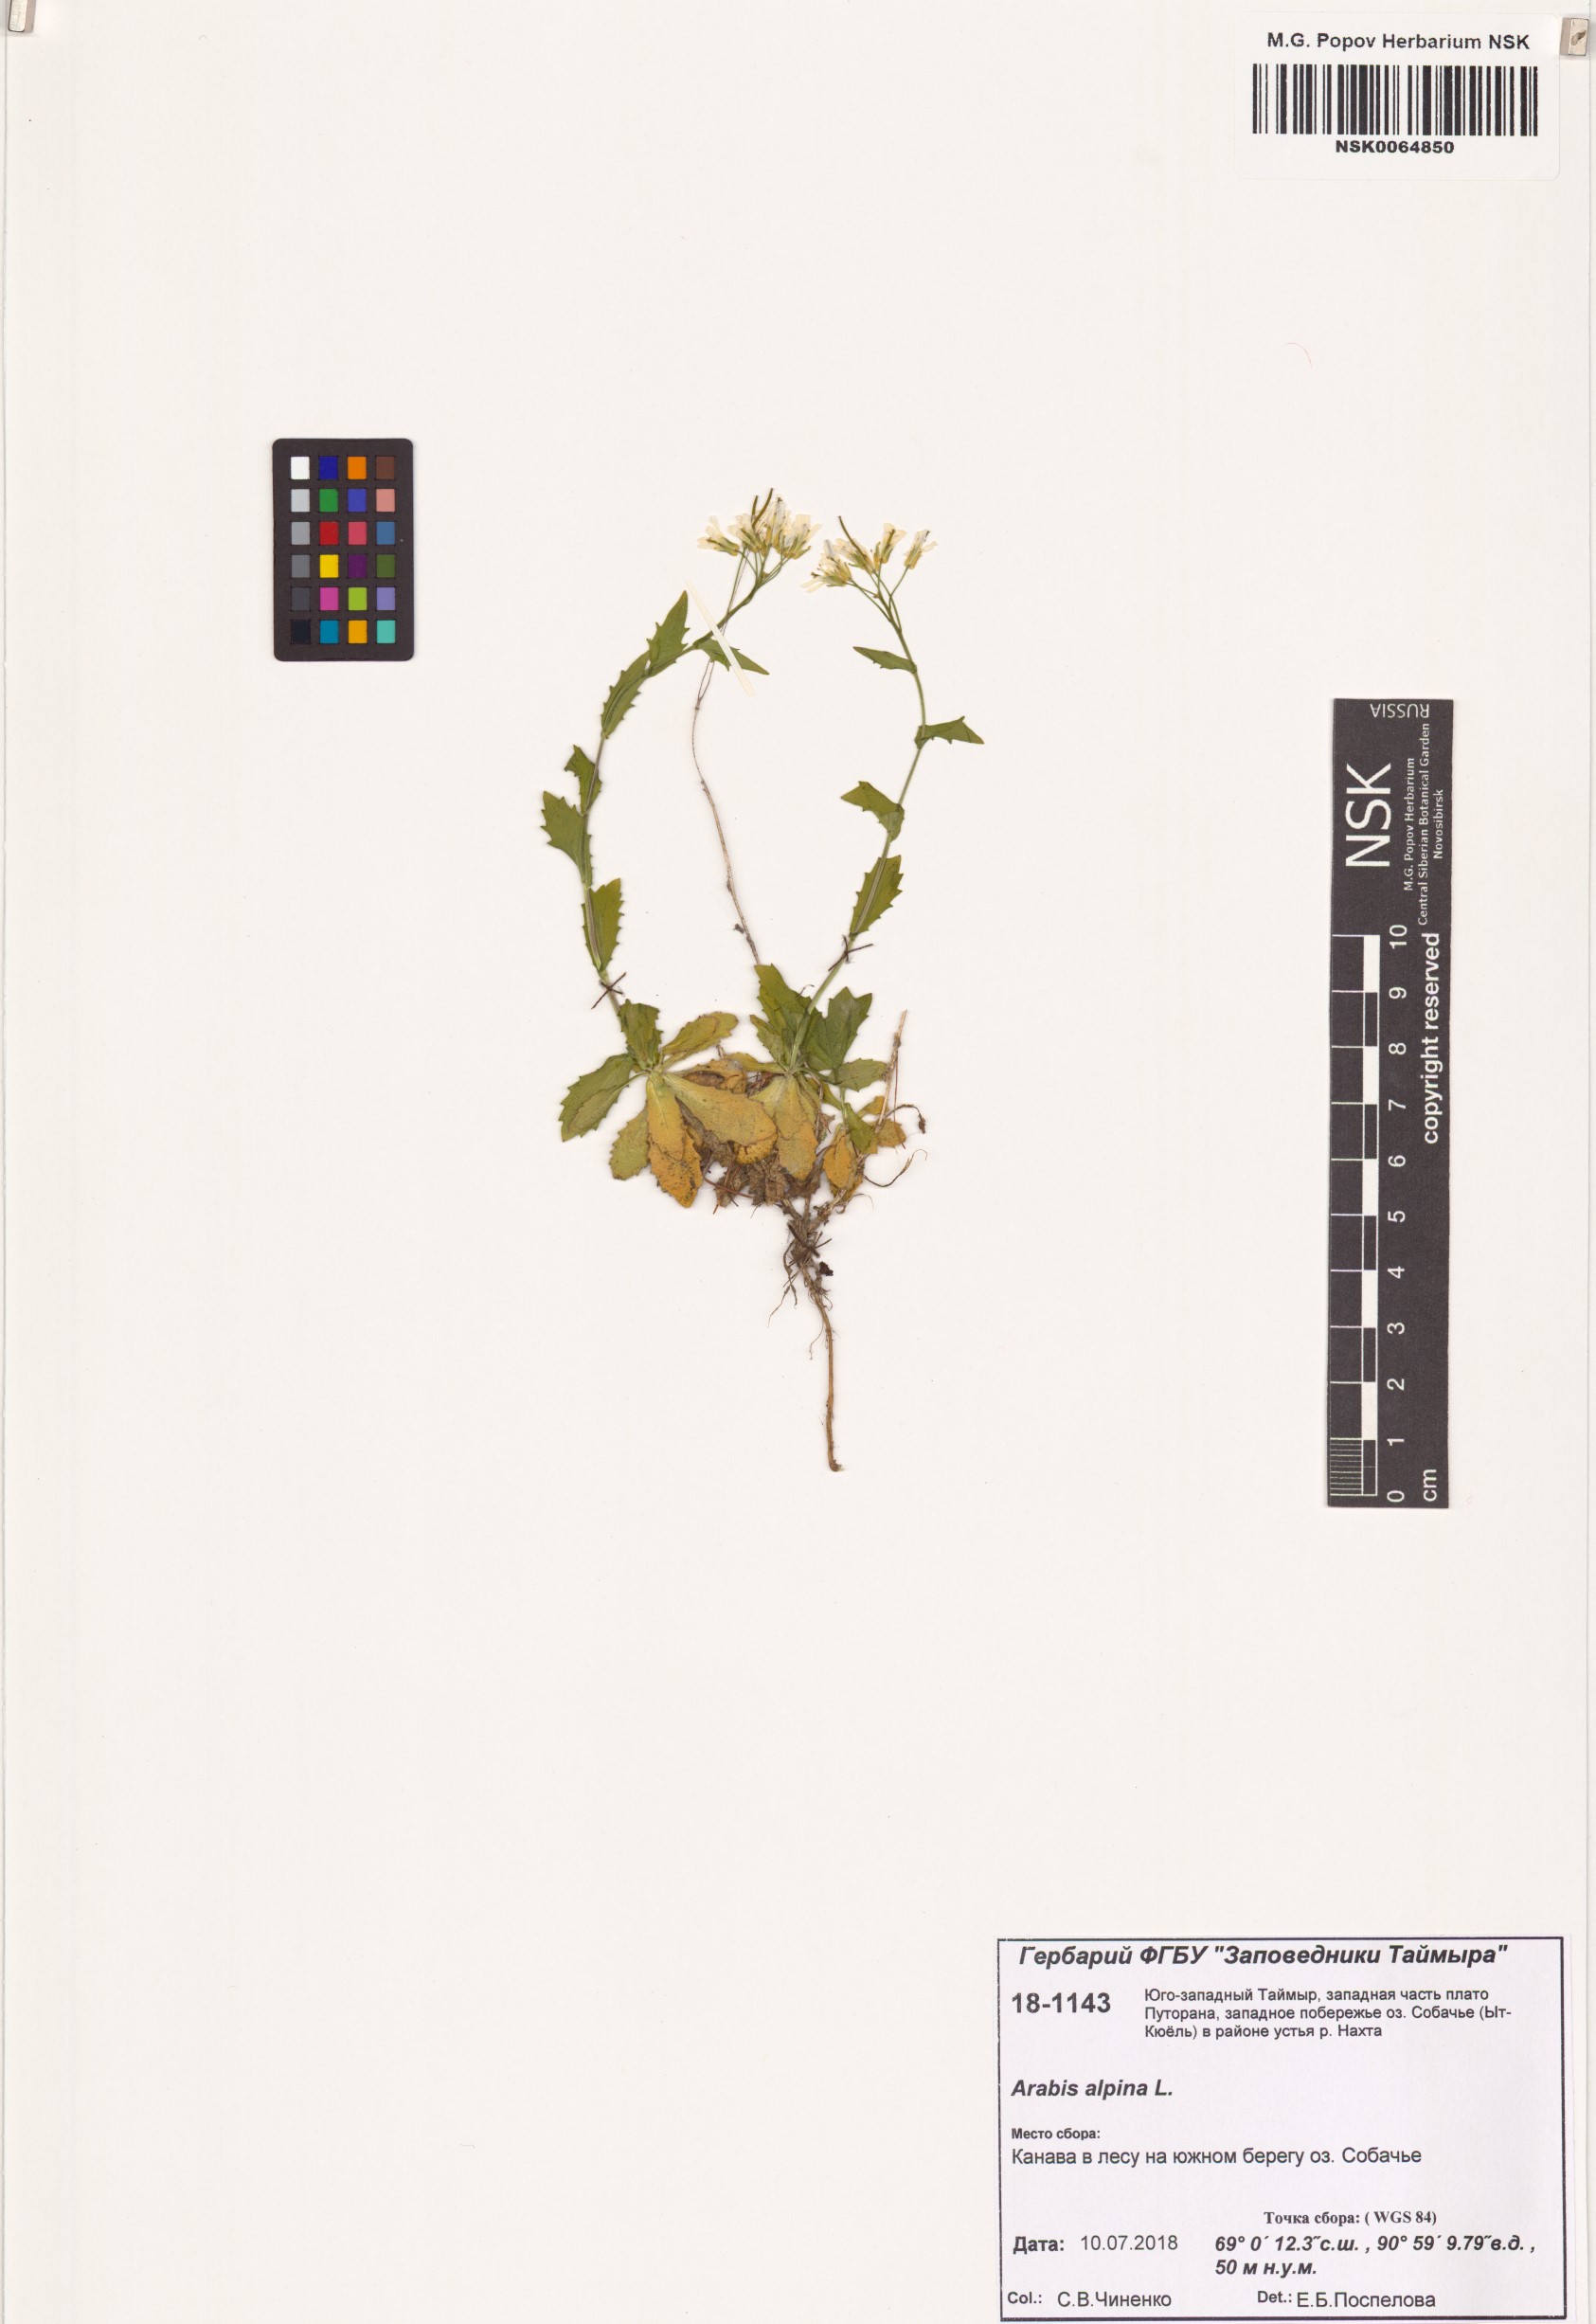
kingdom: Plantae
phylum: Tracheophyta
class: Magnoliopsida
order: Brassicales
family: Brassicaceae
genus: Arabis
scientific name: Arabis alpina
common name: Alpine rock-cress
